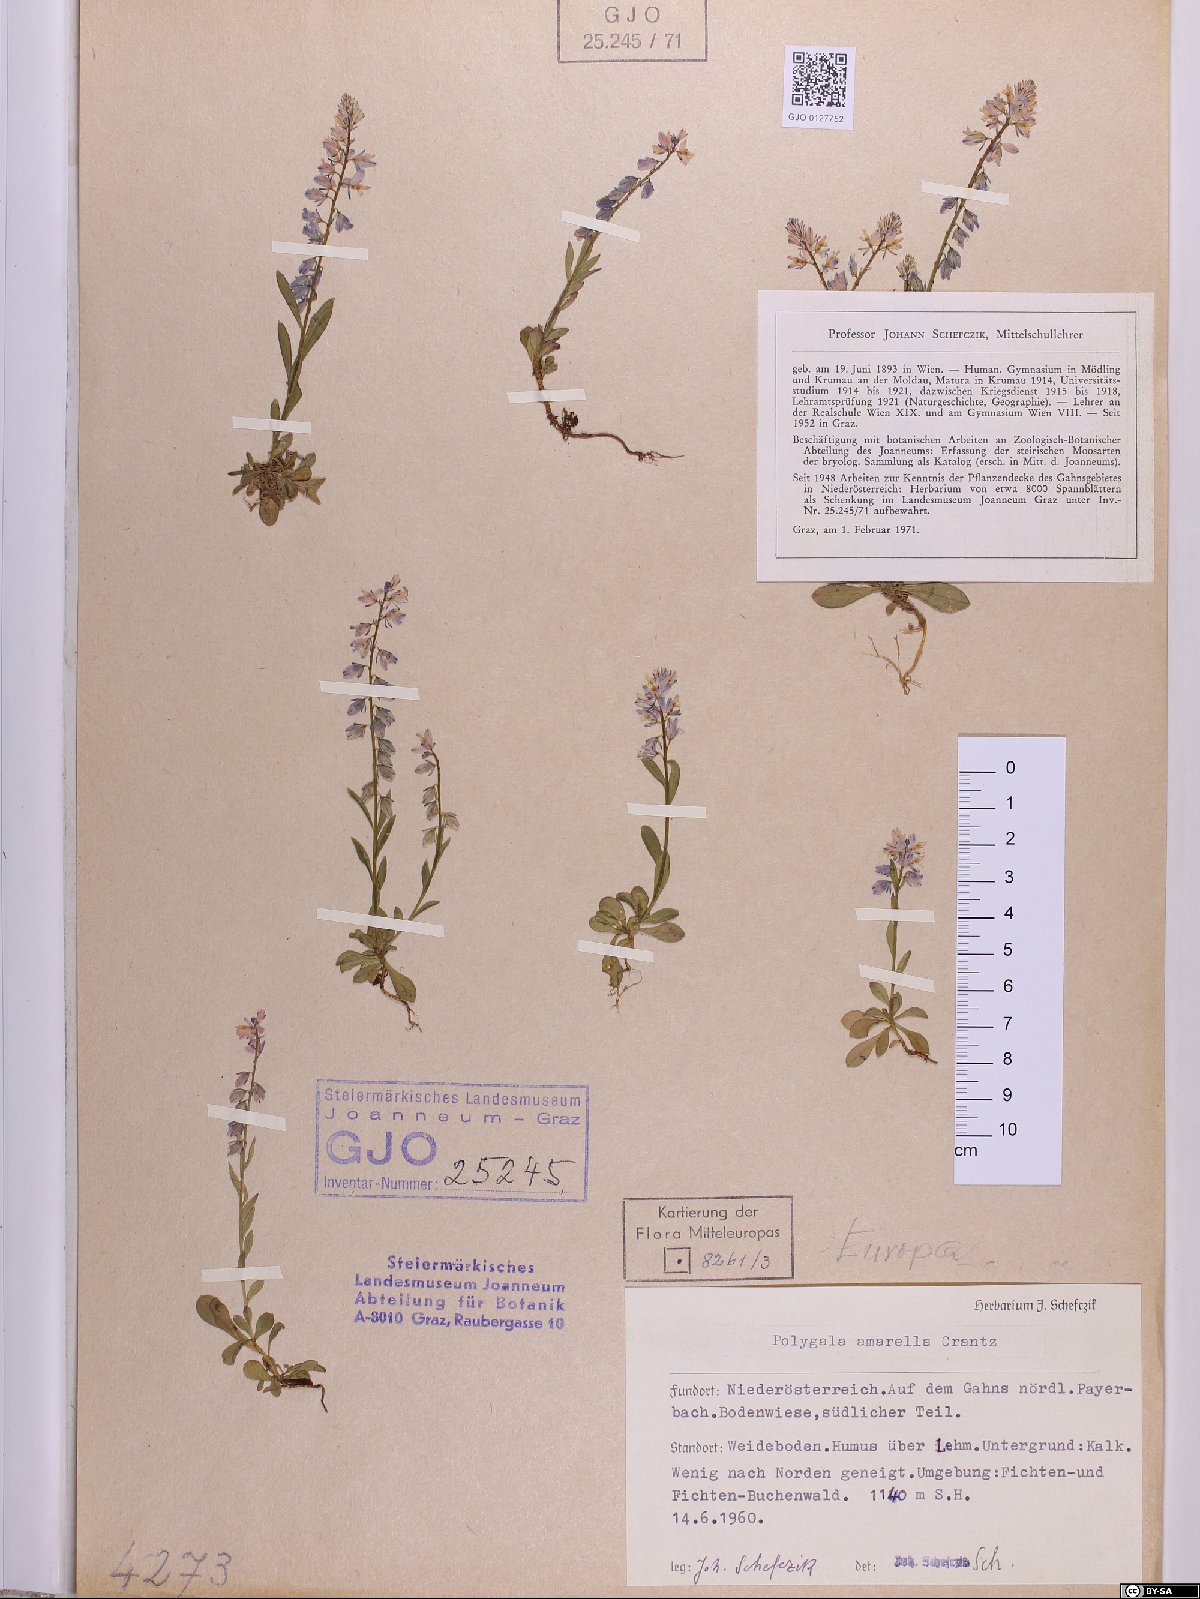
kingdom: Plantae
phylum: Tracheophyta
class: Magnoliopsida
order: Fabales
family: Polygalaceae
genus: Polygala
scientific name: Polygala amarella
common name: Dwarf milkwort
